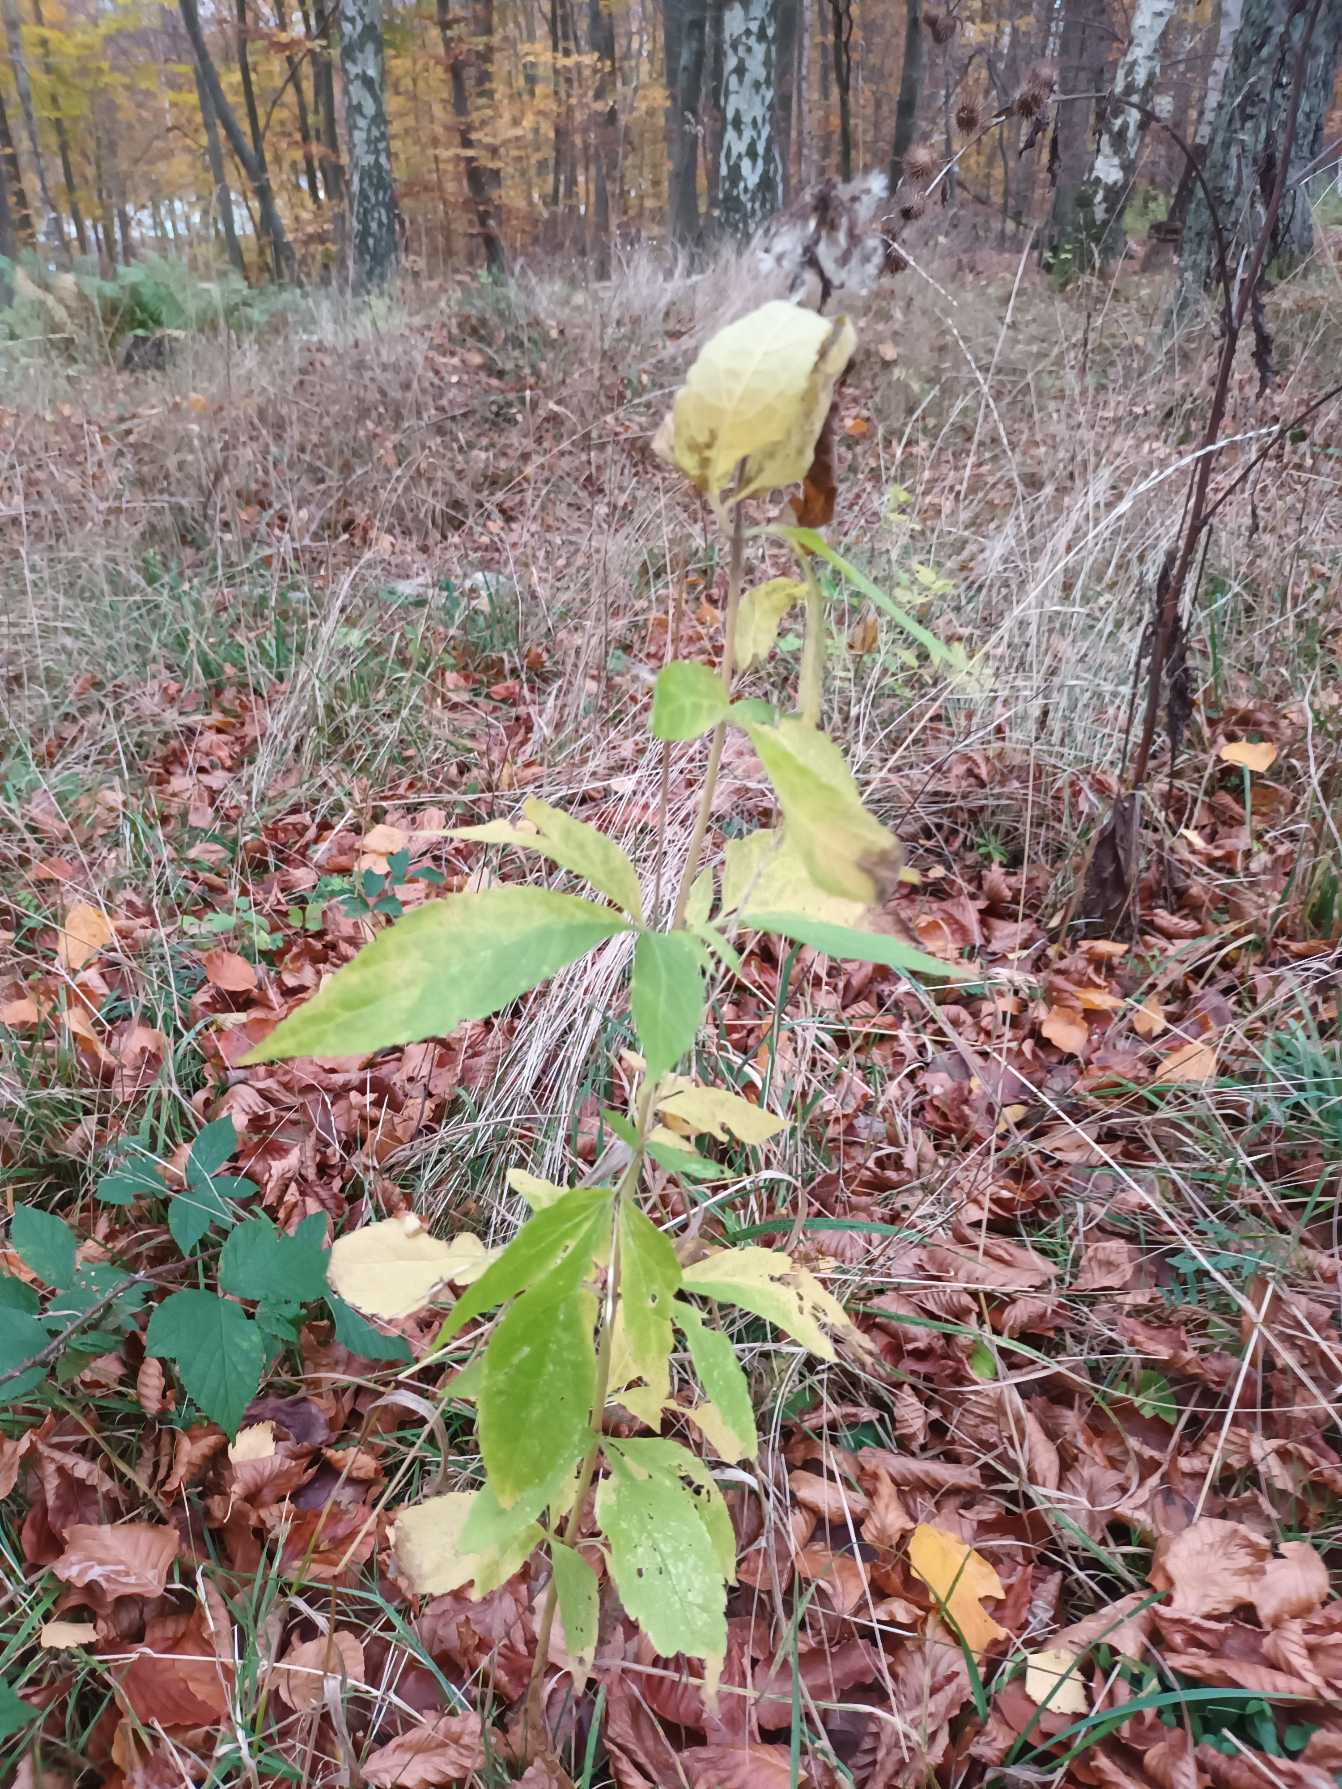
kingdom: Plantae
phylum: Tracheophyta
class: Magnoliopsida
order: Asterales
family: Asteraceae
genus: Eupatorium
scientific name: Eupatorium cannabinum
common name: Hjortetrøst
